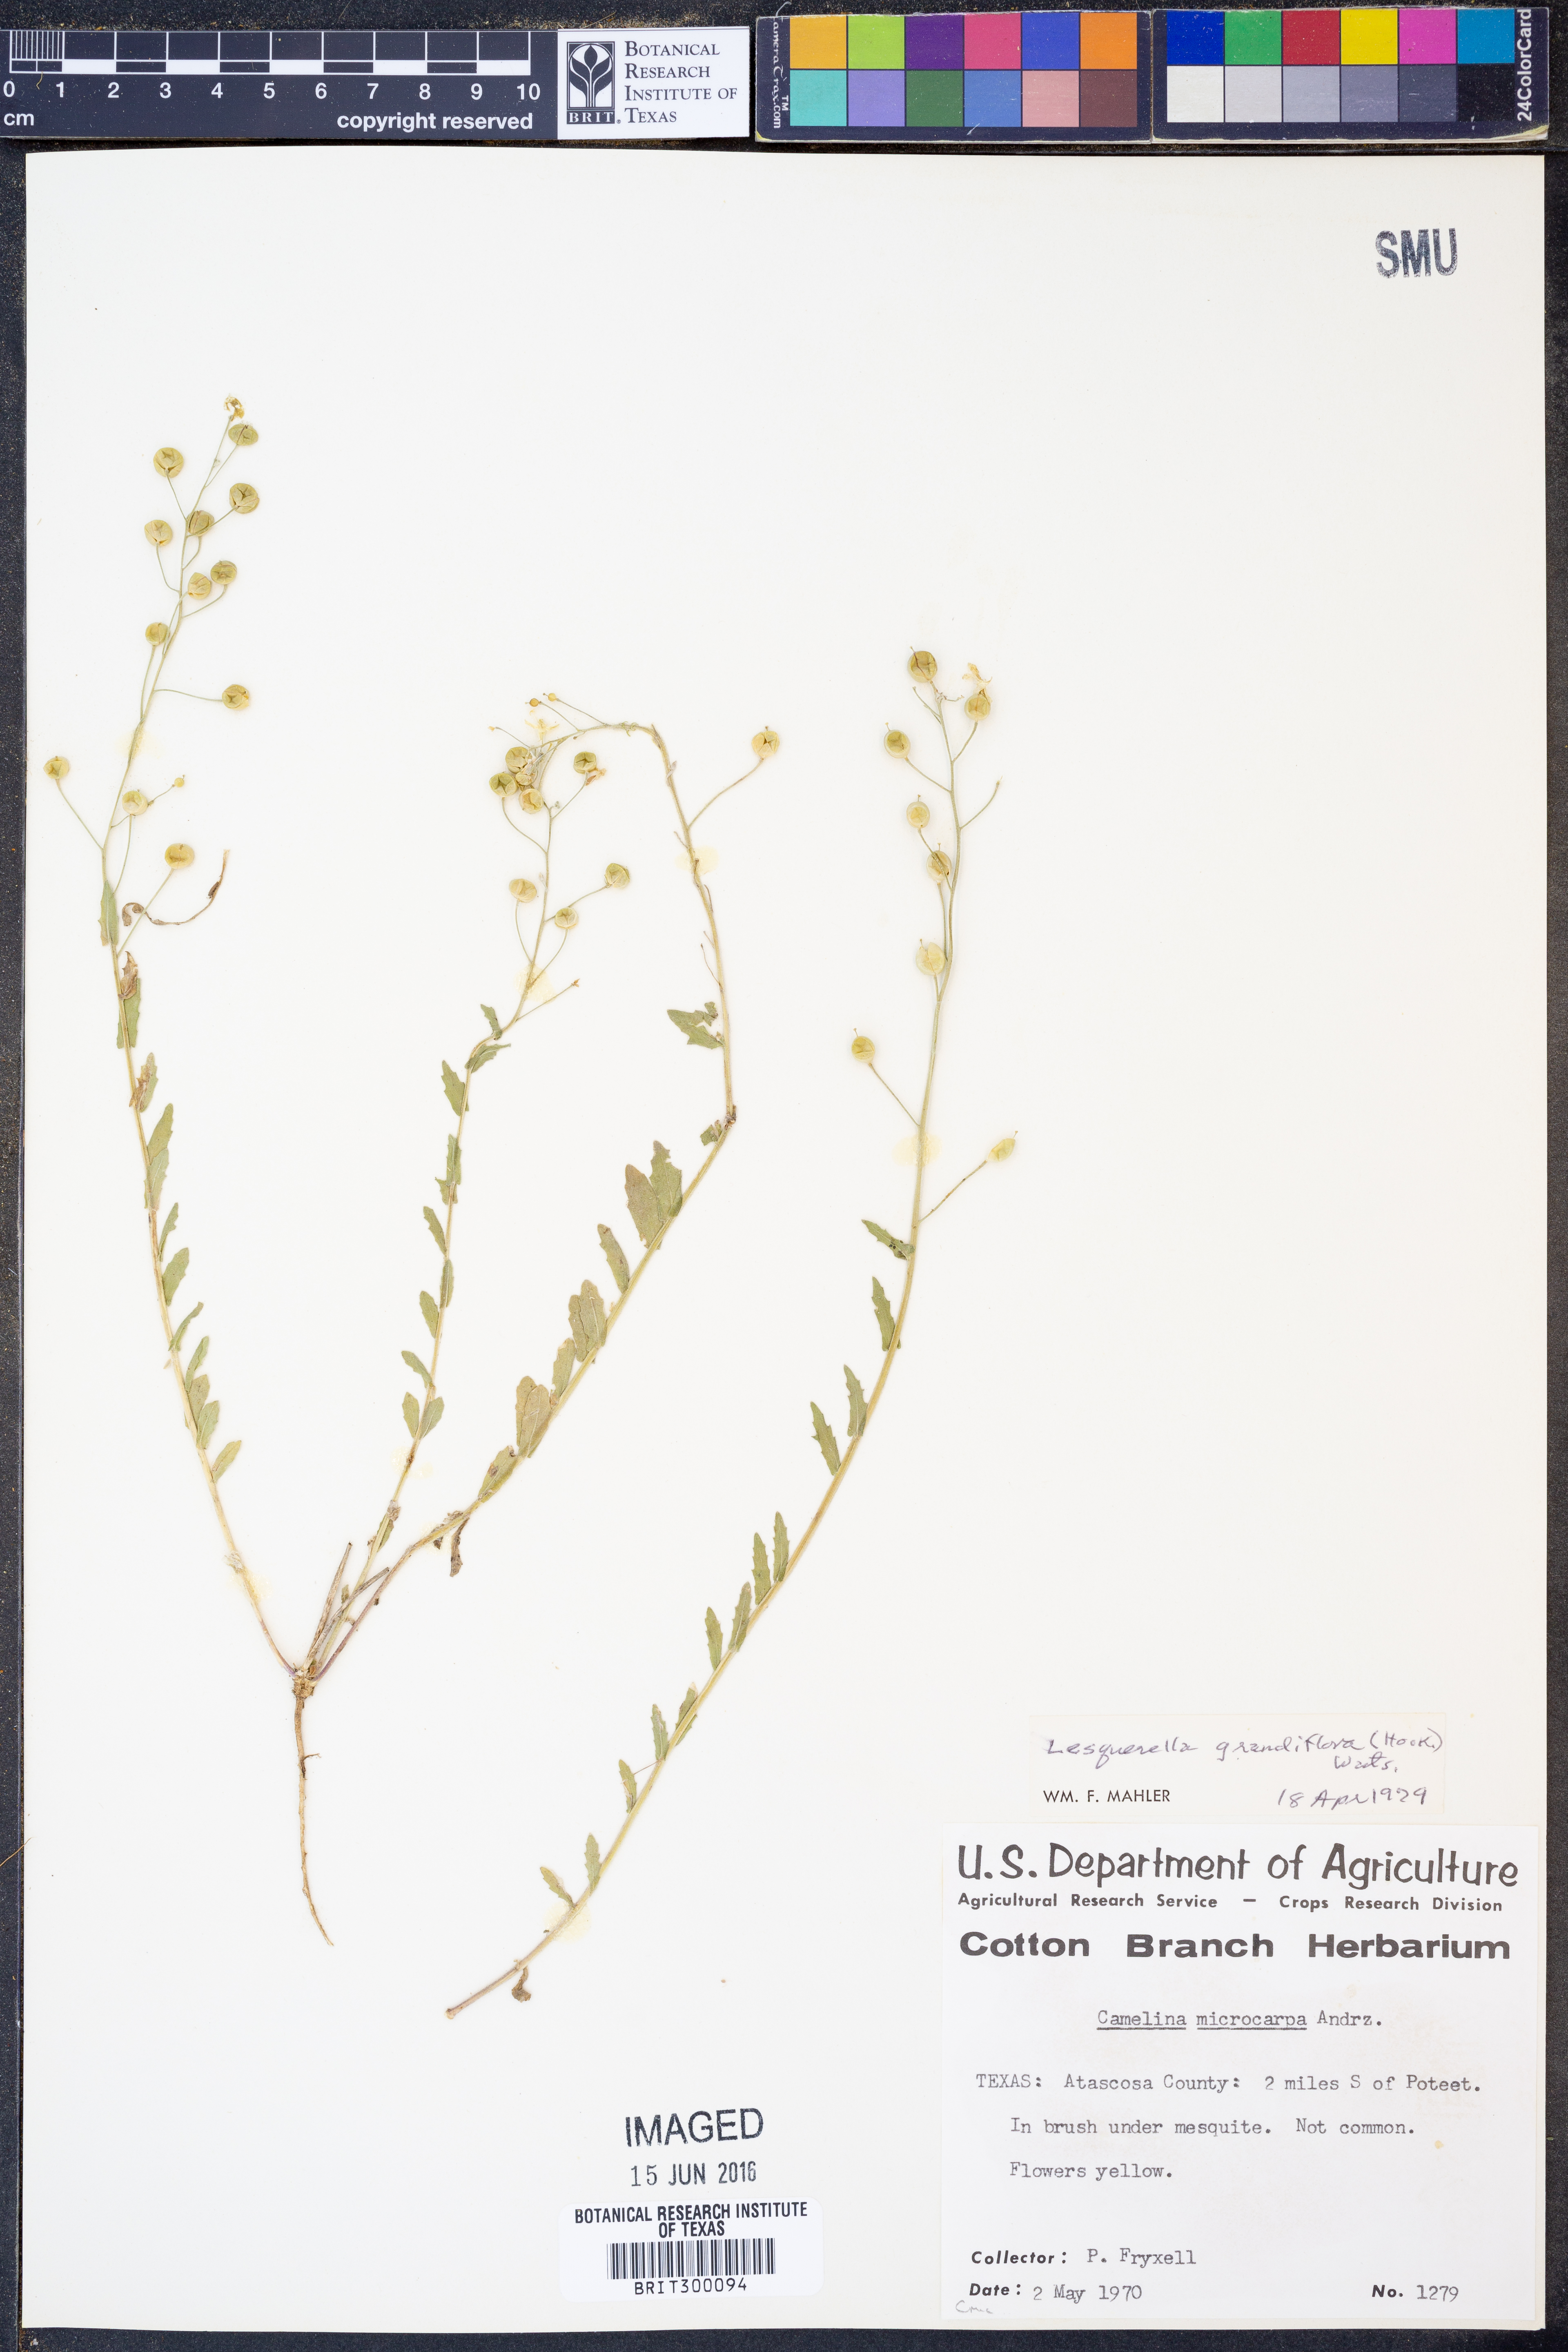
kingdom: Plantae
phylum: Tracheophyta
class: Magnoliopsida
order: Brassicales
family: Brassicaceae
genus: Paysonia
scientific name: Paysonia grandiflora
